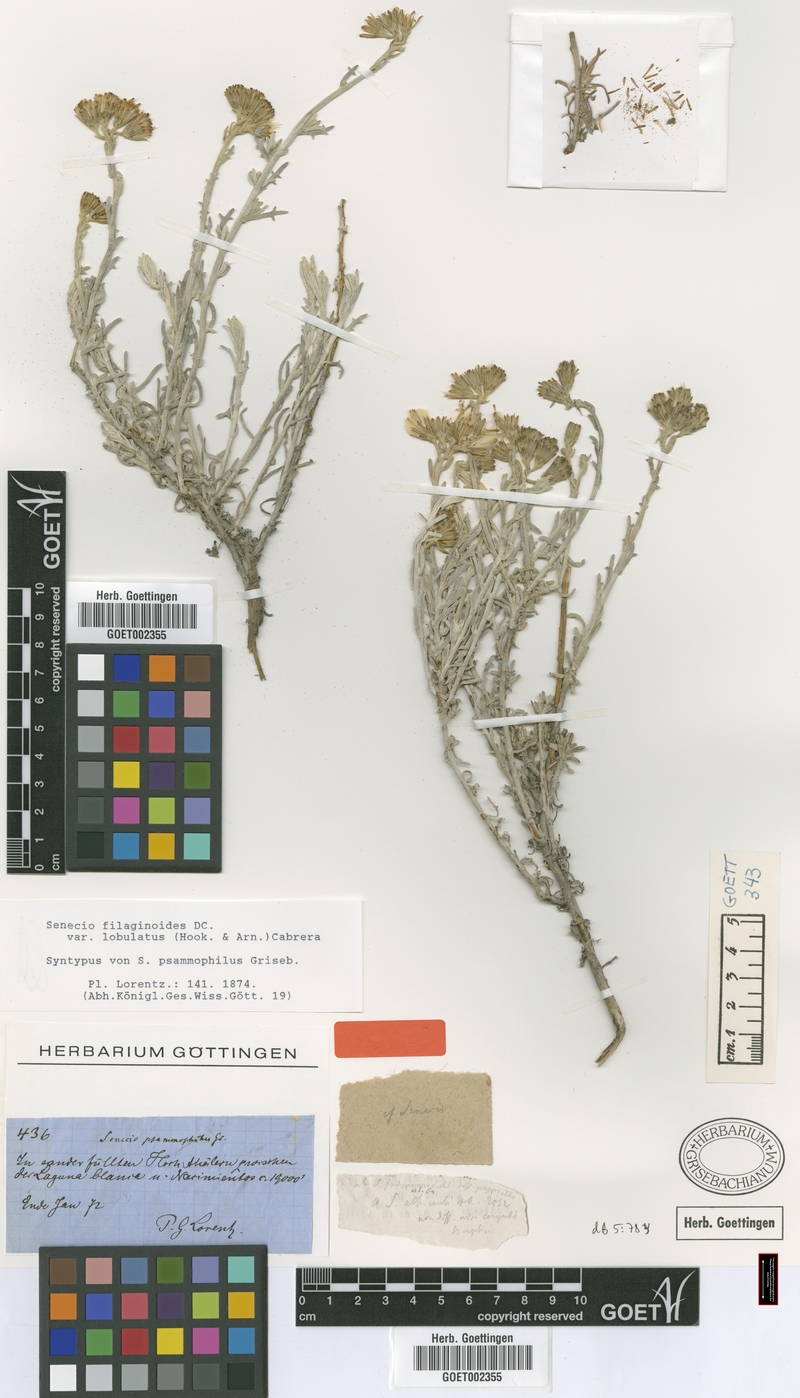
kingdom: Plantae
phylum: Tracheophyta
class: Magnoliopsida
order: Asterales
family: Asteraceae
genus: Senecio
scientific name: Senecio filaginoides
